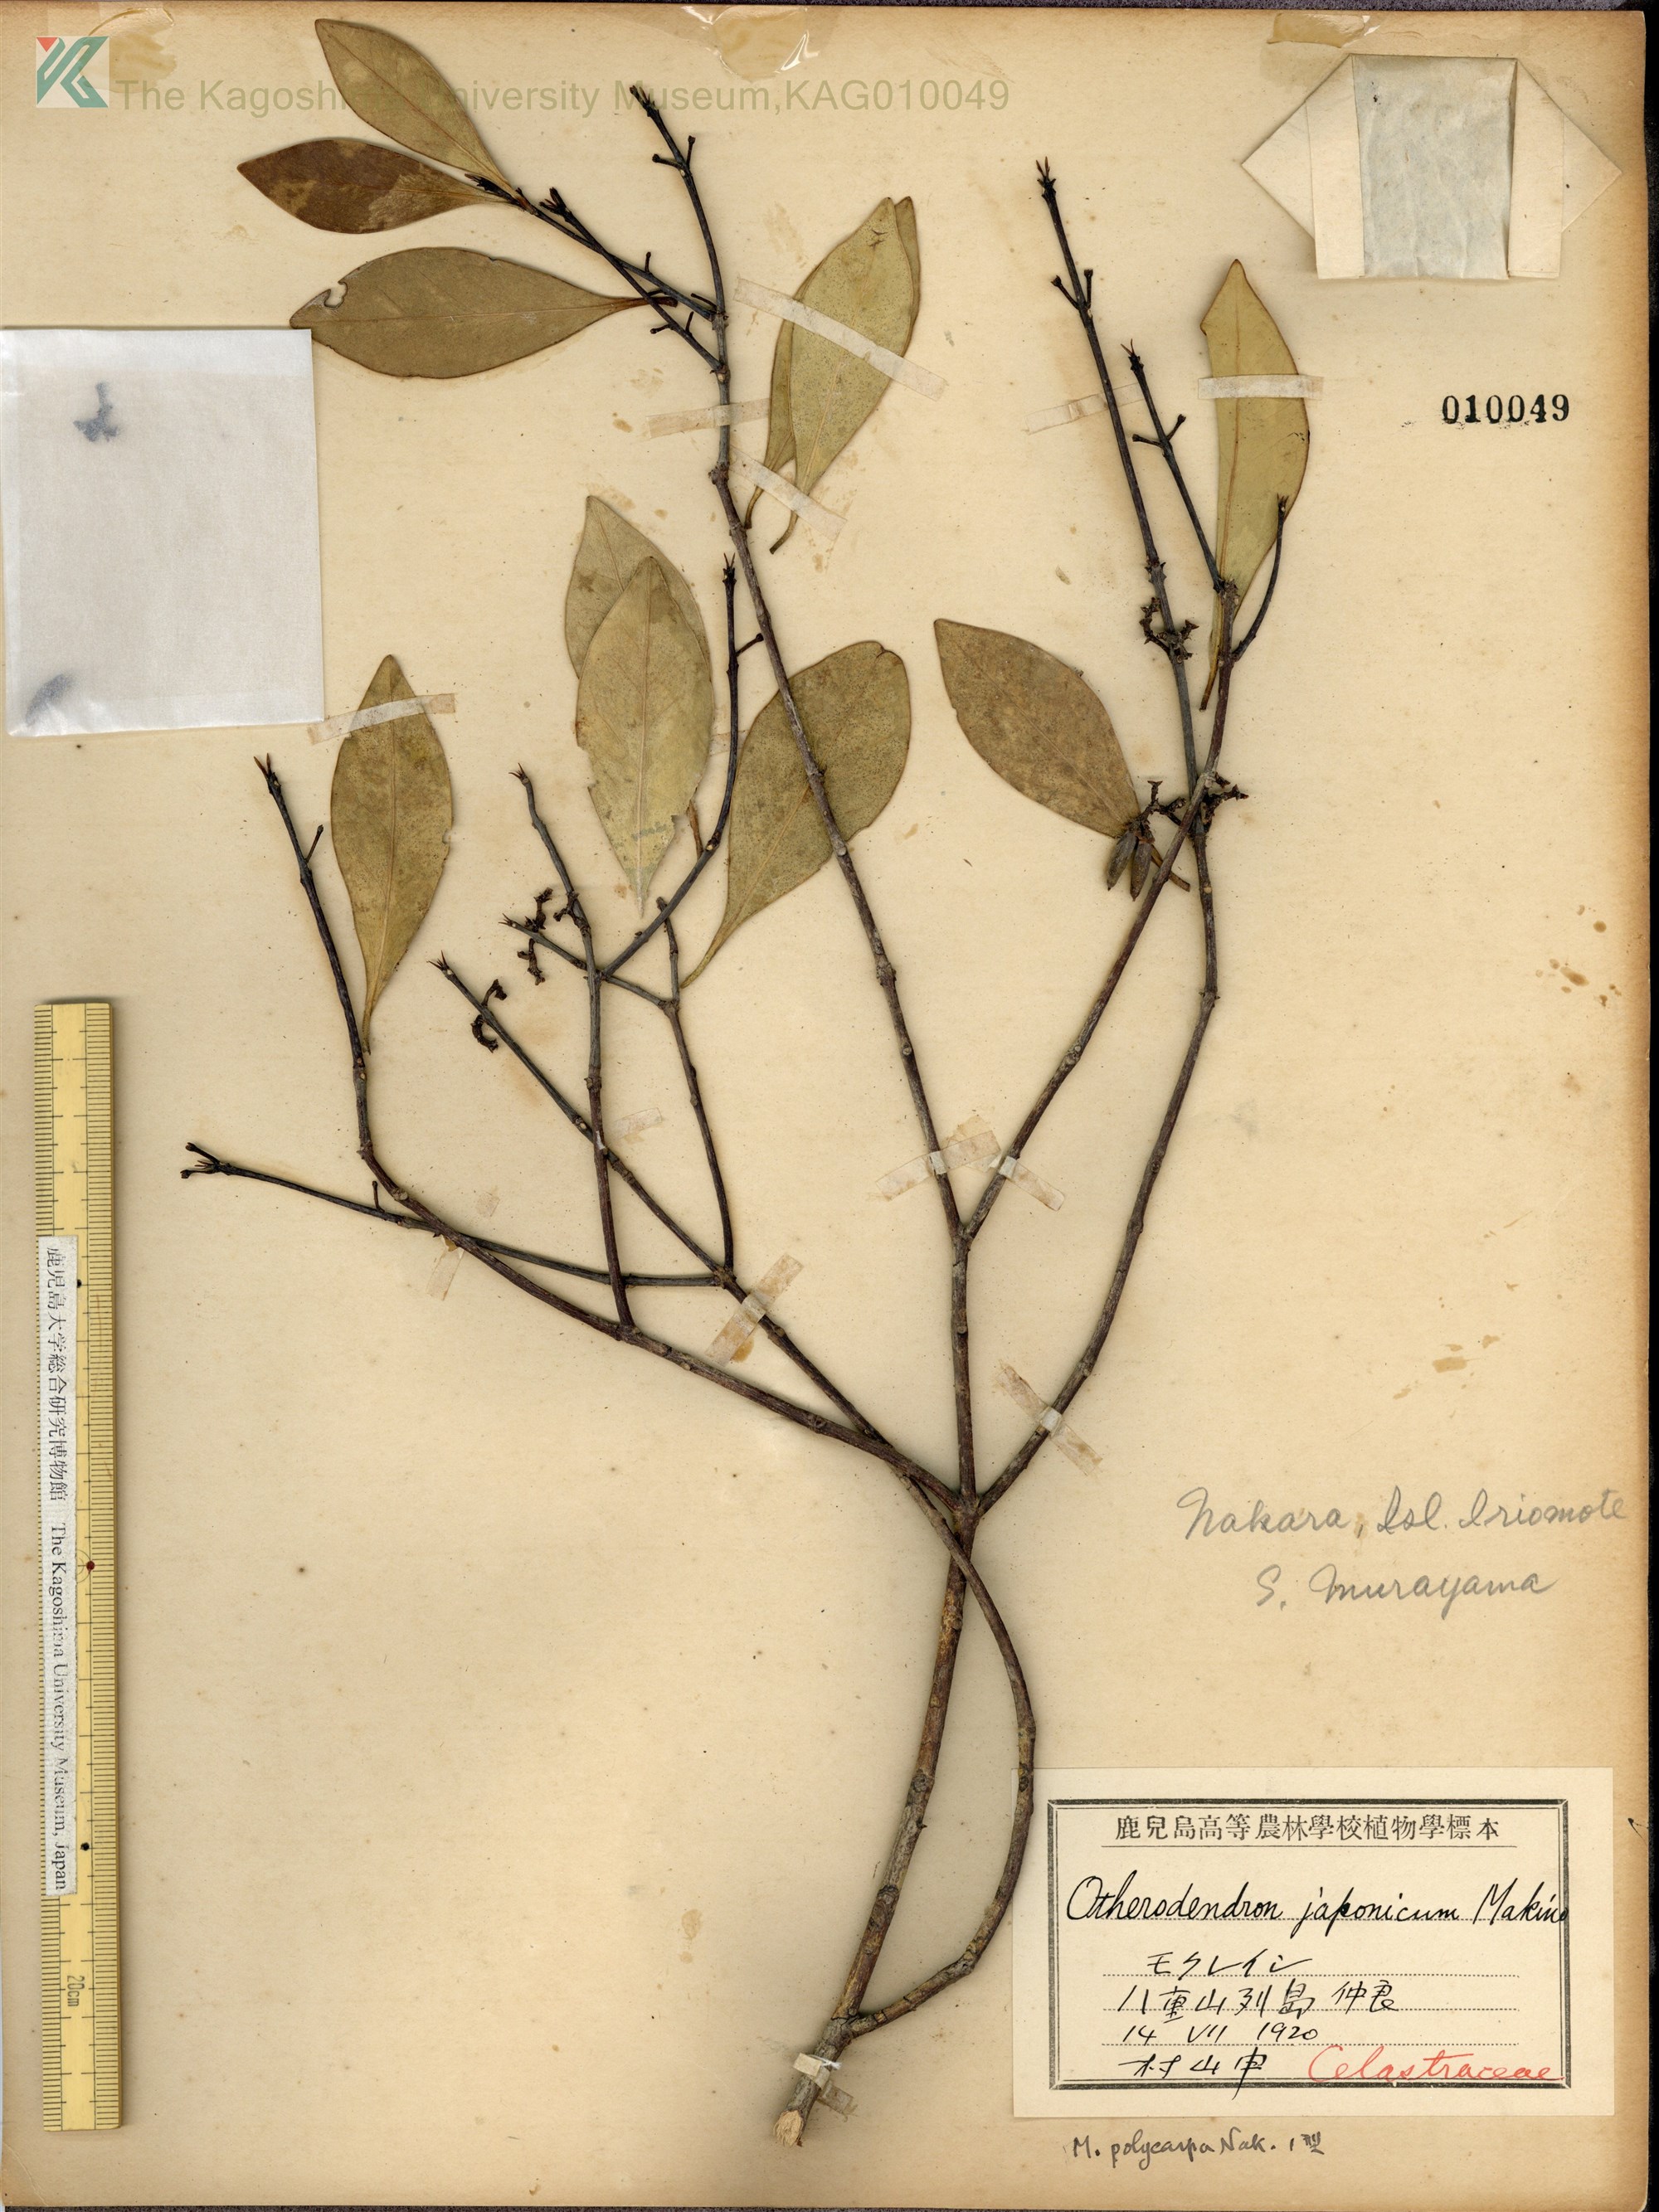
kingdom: Plantae
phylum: Tracheophyta
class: Magnoliopsida
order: Celastrales
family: Celastraceae
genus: Microtropis
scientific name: Microtropis japonica
